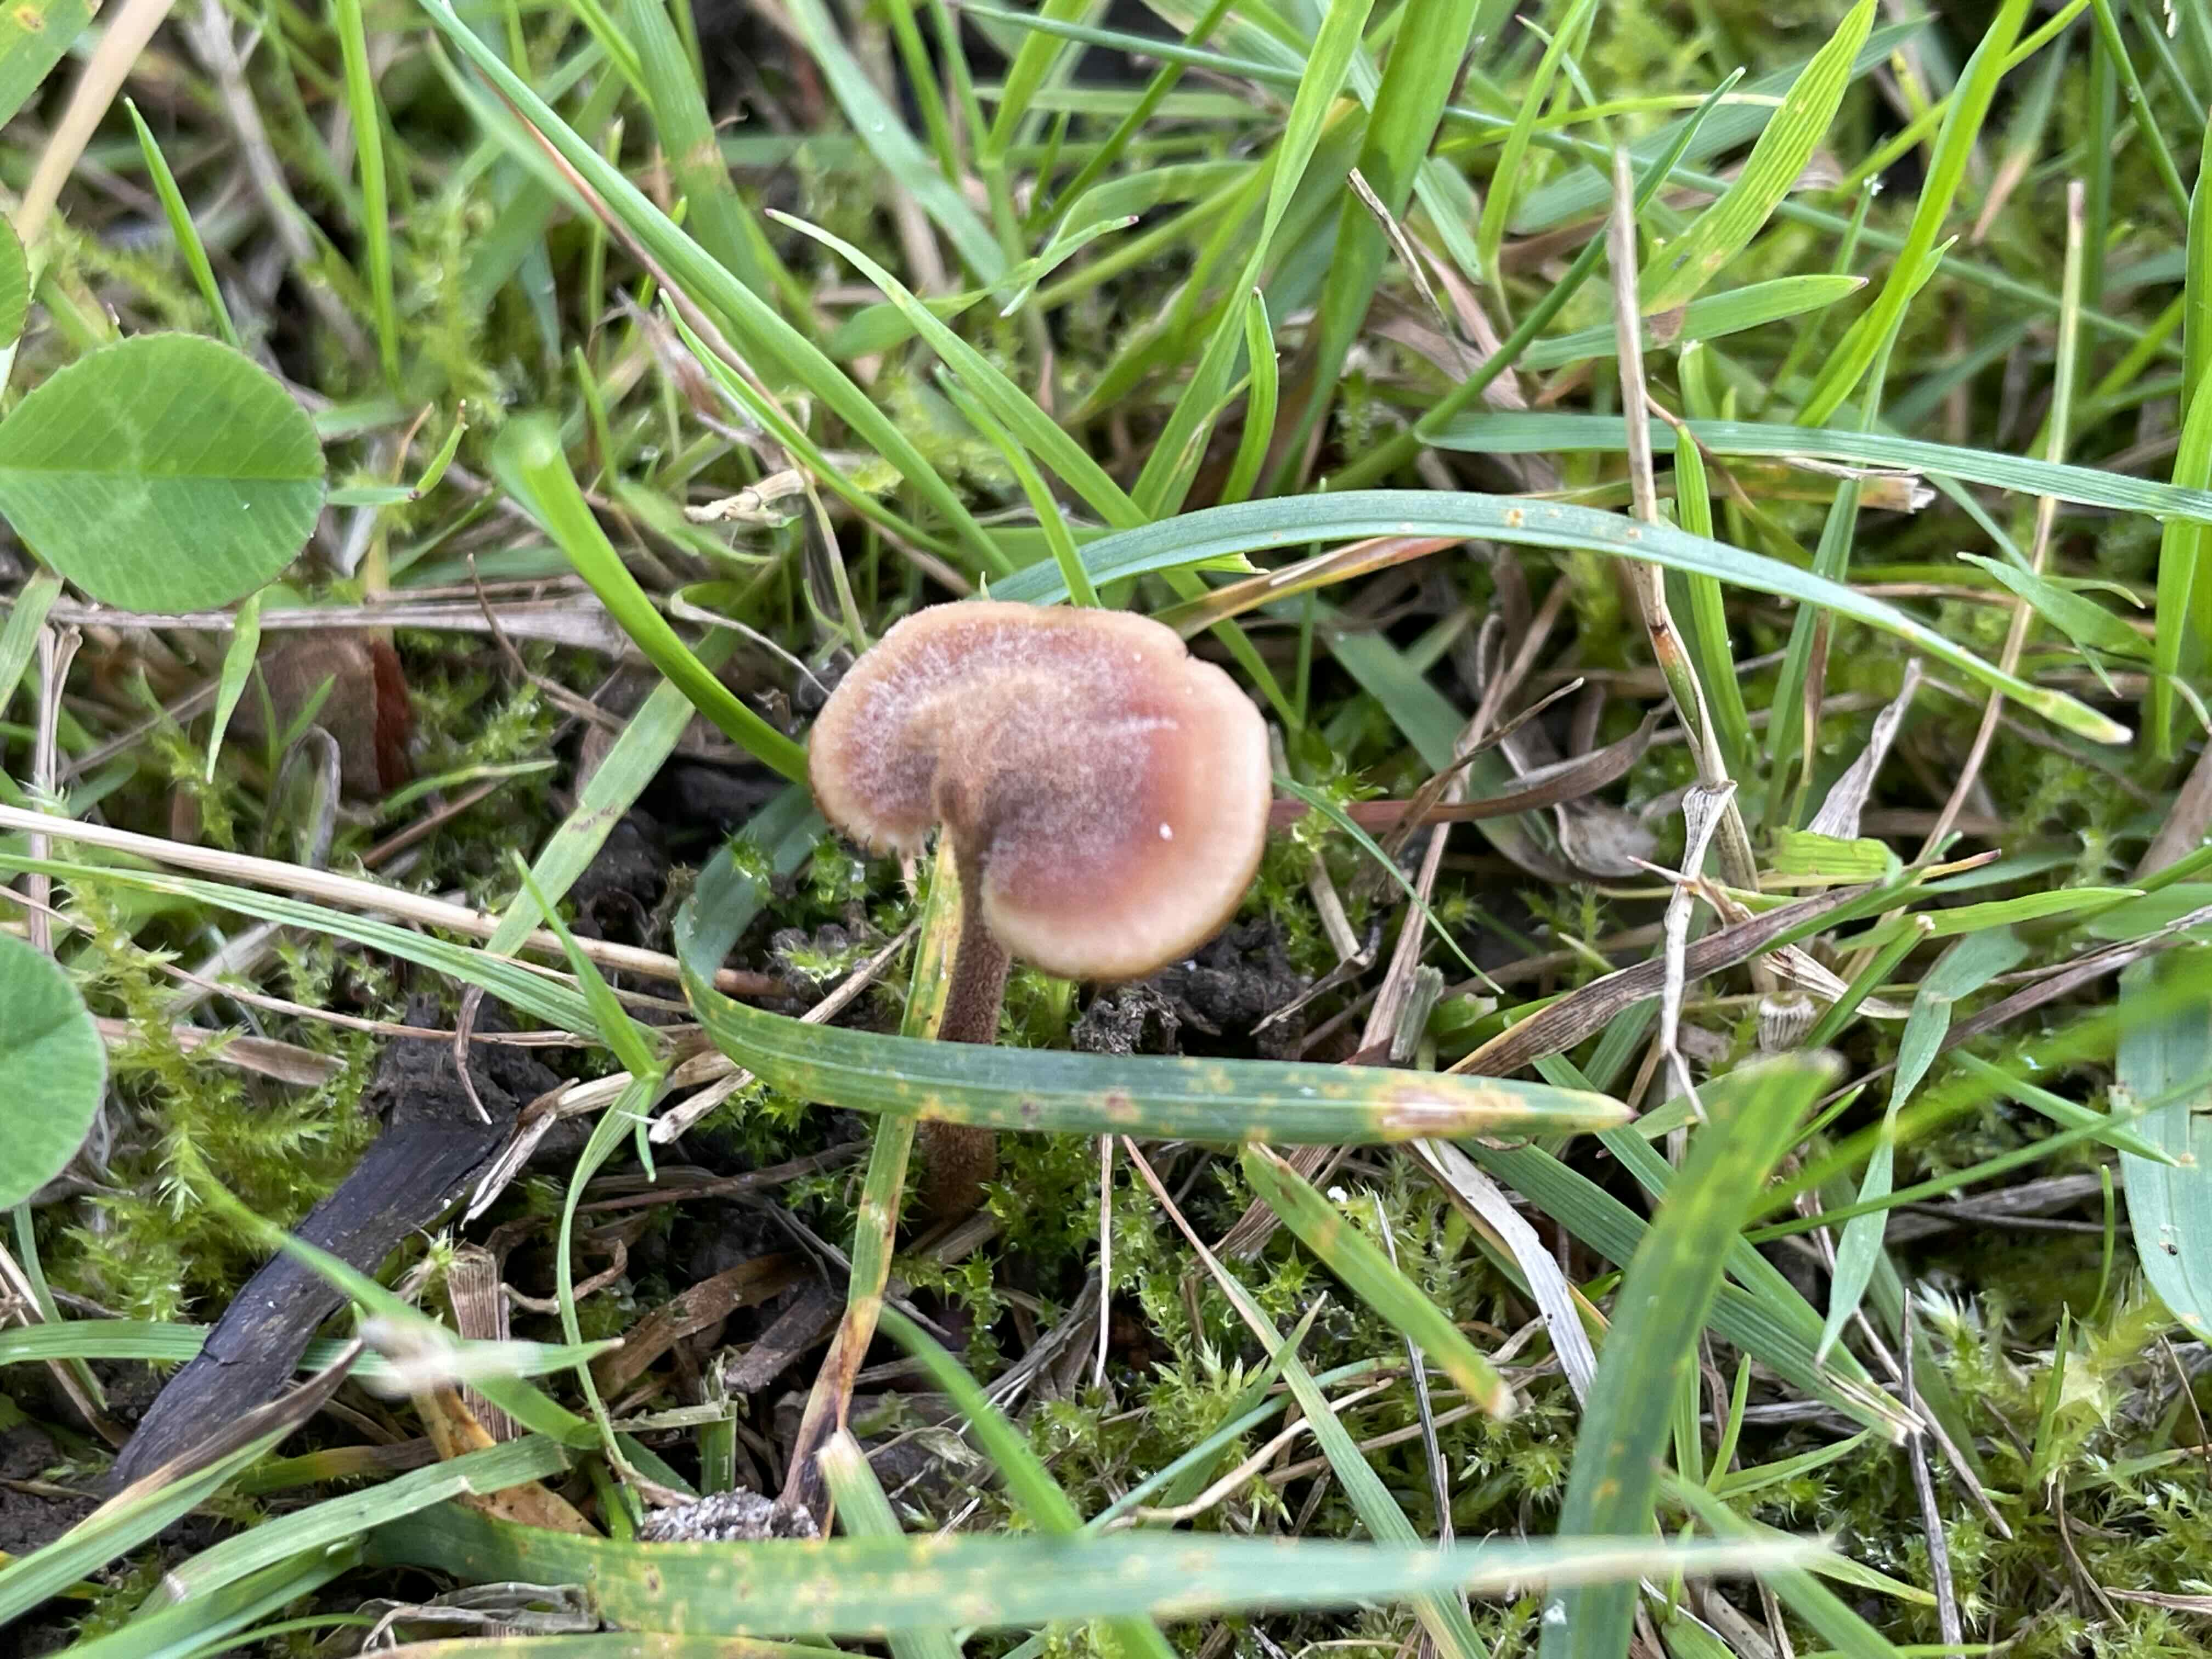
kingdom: Fungi
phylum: Basidiomycota
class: Agaricomycetes
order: Russulales
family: Auriscalpiaceae
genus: Auriscalpium
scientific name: Auriscalpium vulgare
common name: koglepigsvamp
